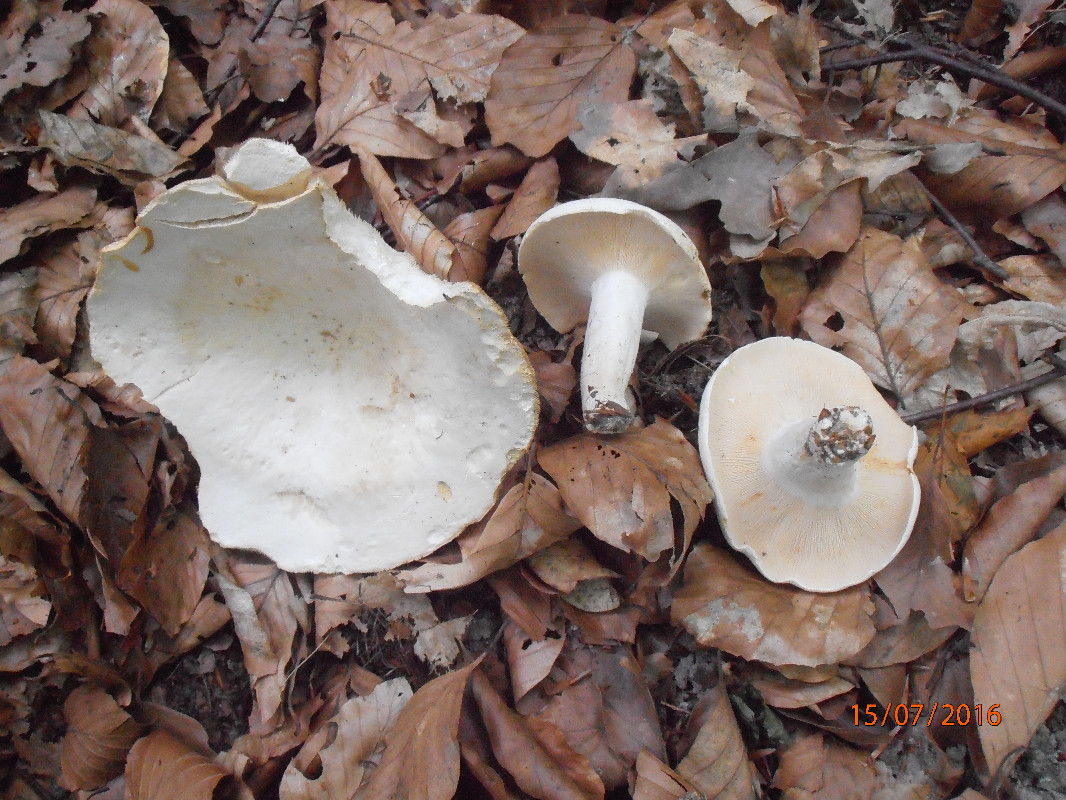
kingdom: Fungi
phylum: Basidiomycota
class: Agaricomycetes
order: Russulales
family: Russulaceae
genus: Lactifluus
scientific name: Lactifluus piperatus
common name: peber-mælkehat
